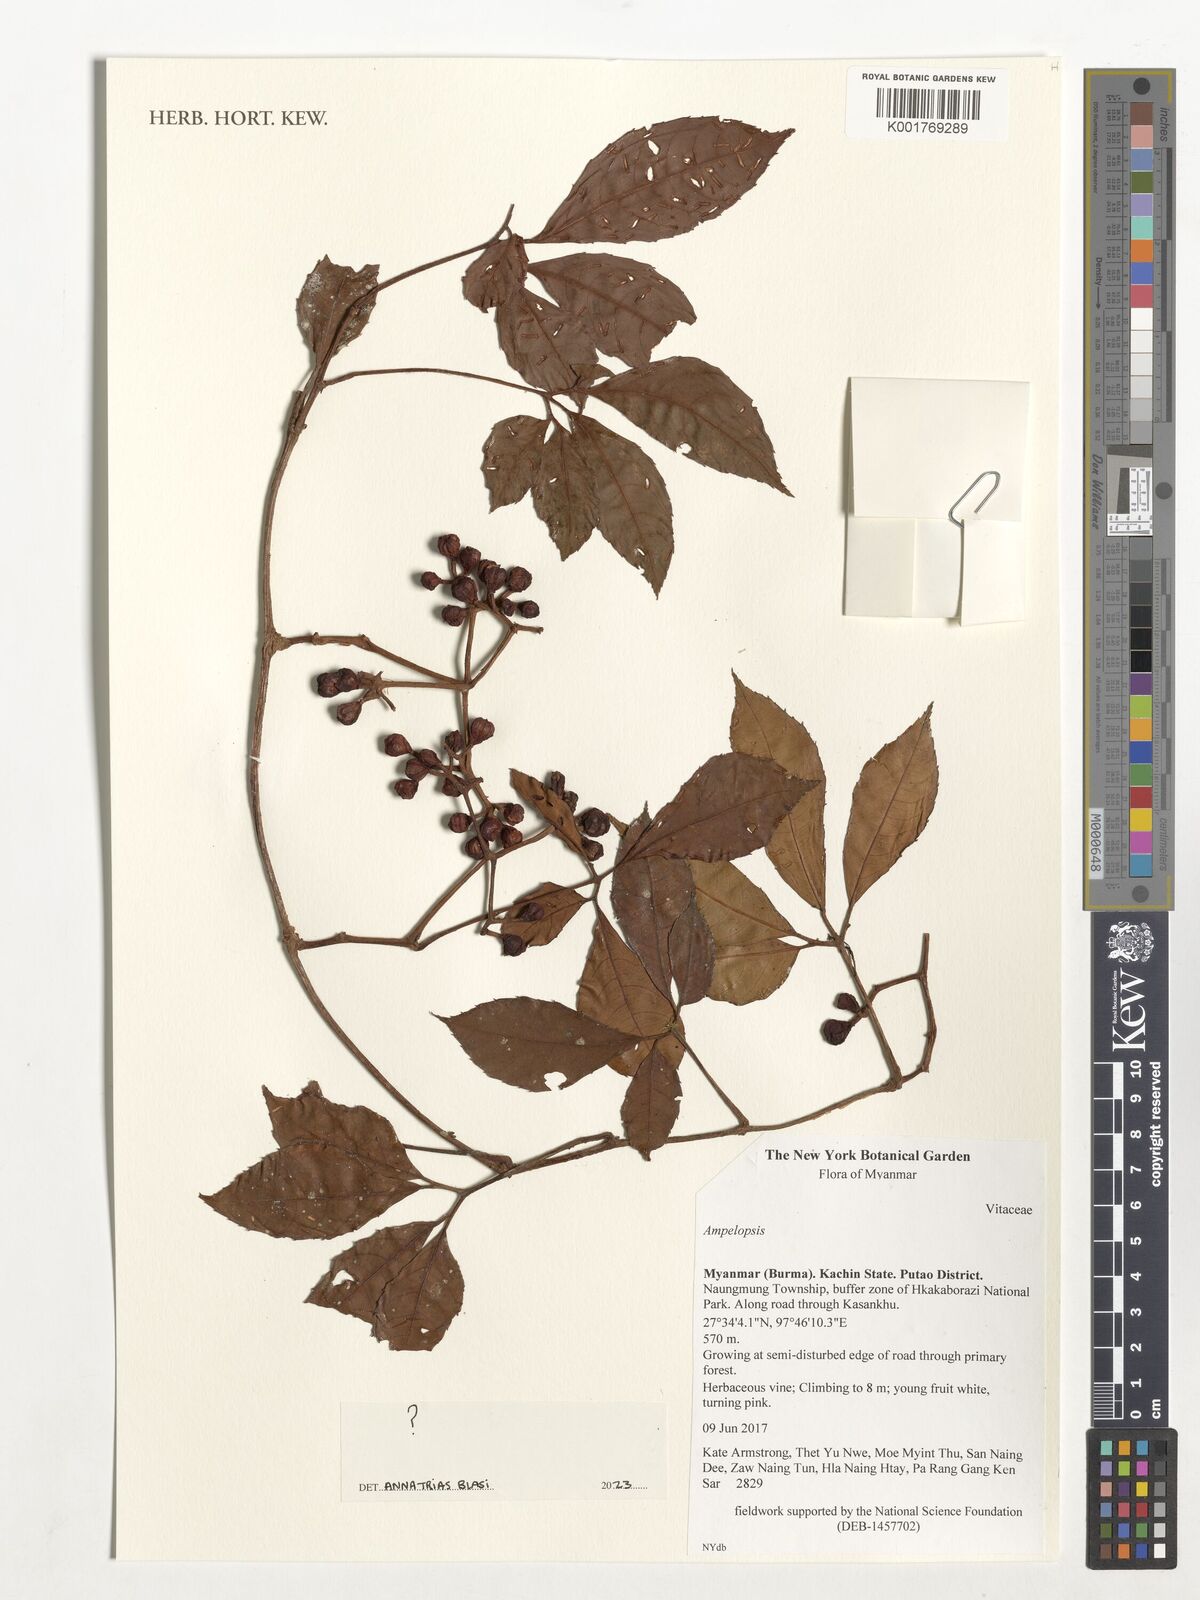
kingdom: Plantae
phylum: Tracheophyta
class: Magnoliopsida
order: Vitales
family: Vitaceae
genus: Ampelopsis
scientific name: Ampelopsis
